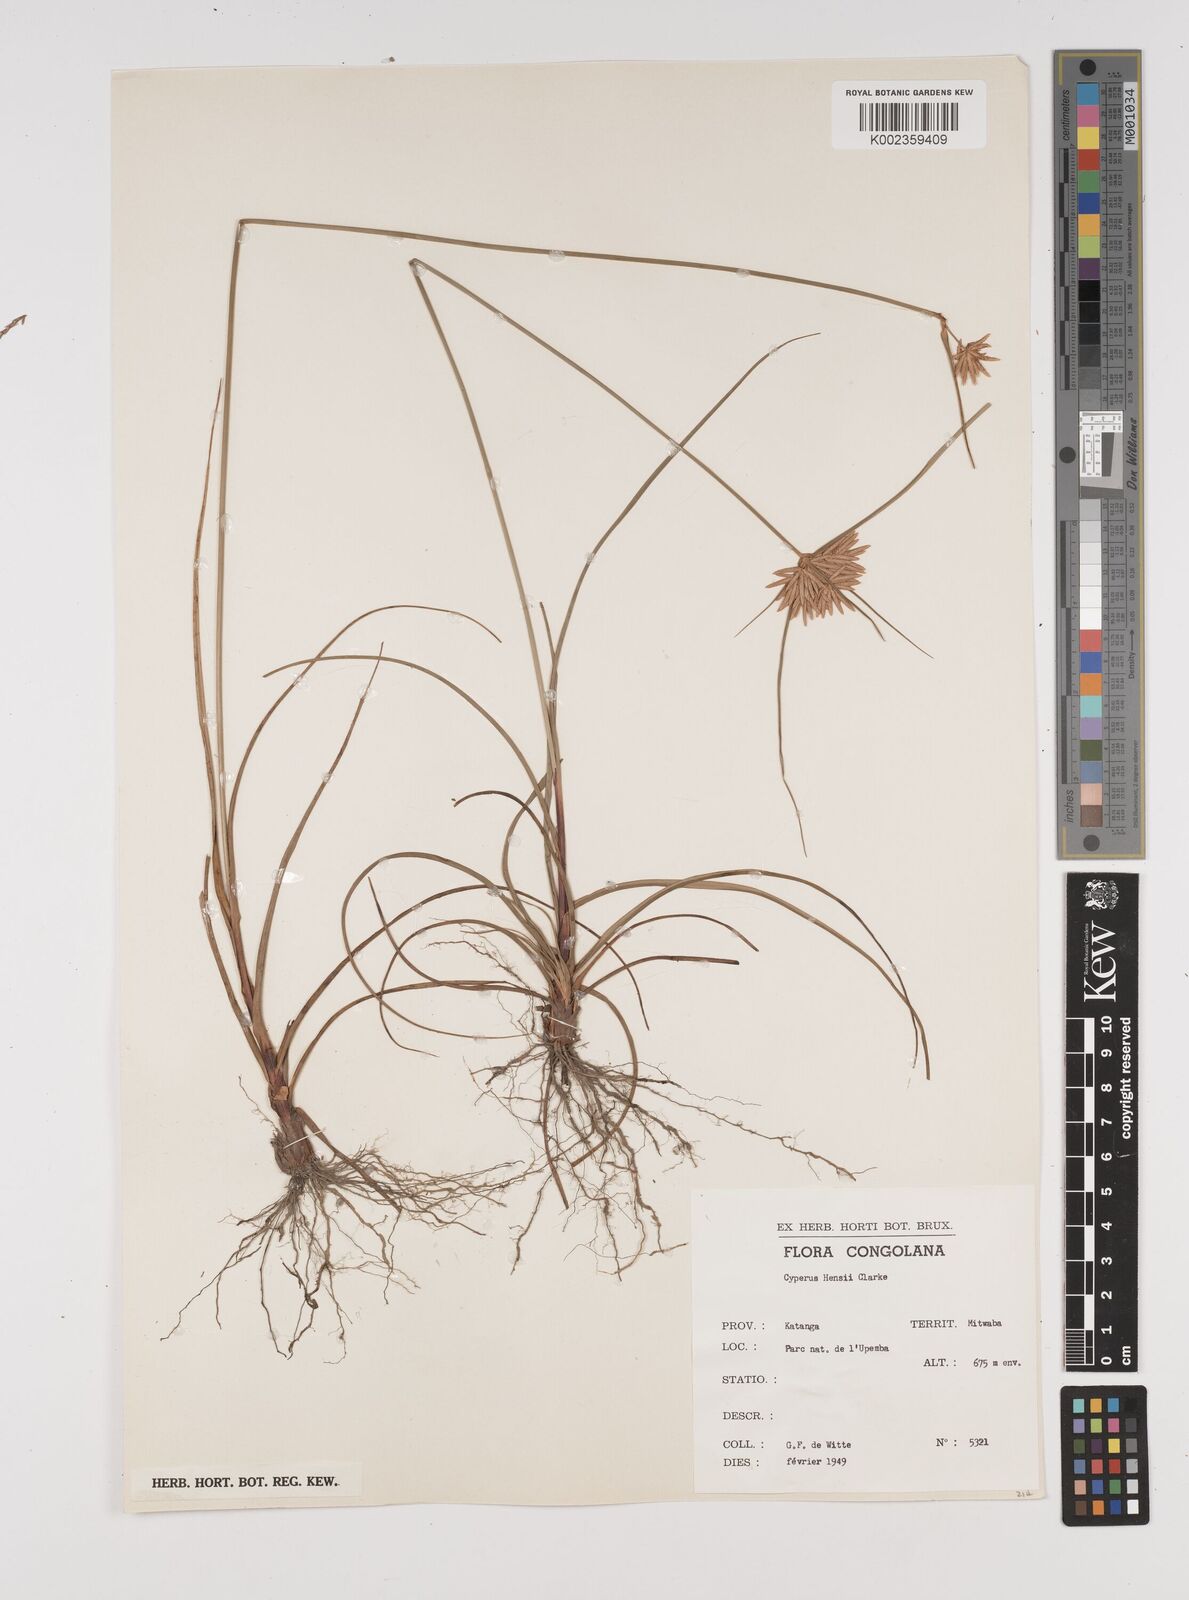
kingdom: Plantae
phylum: Tracheophyta
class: Liliopsida
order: Poales
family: Cyperaceae
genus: Cyperus
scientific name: Cyperus hensii
